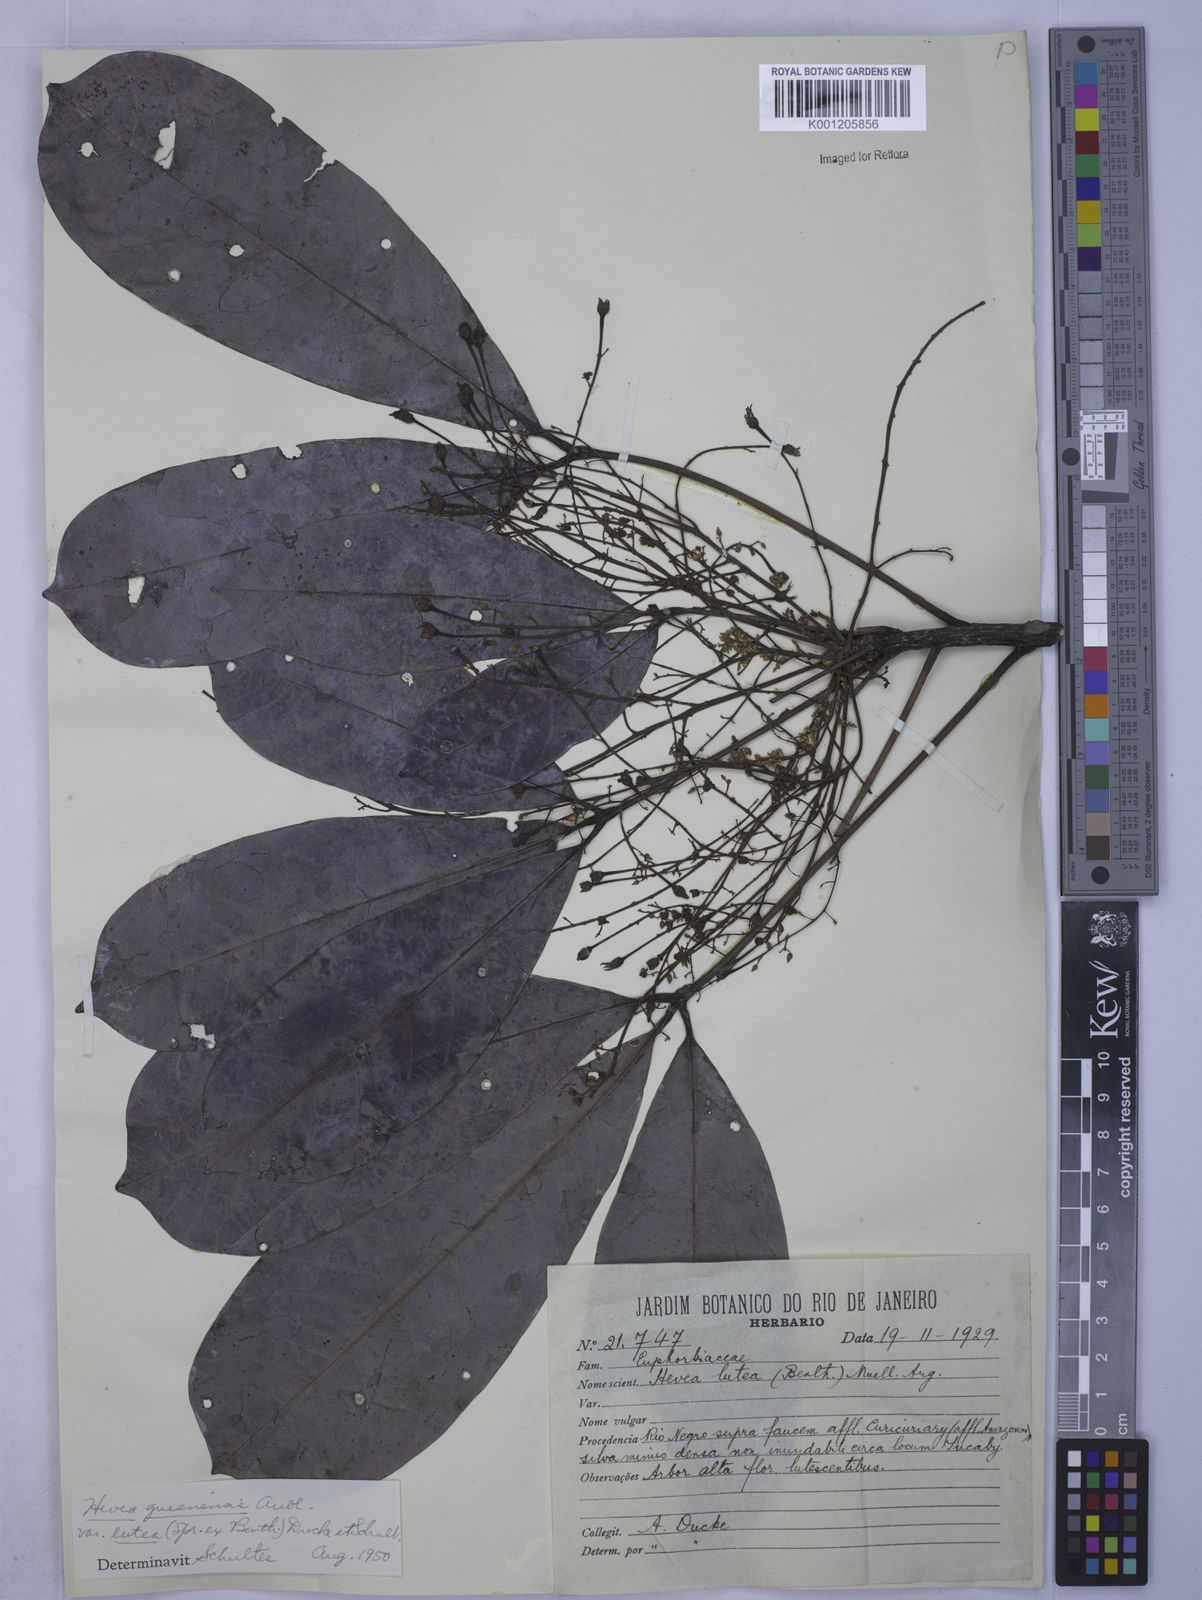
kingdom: Plantae
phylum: Tracheophyta
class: Magnoliopsida
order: Malpighiales
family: Euphorbiaceae
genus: Hevea
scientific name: Hevea guianensis
